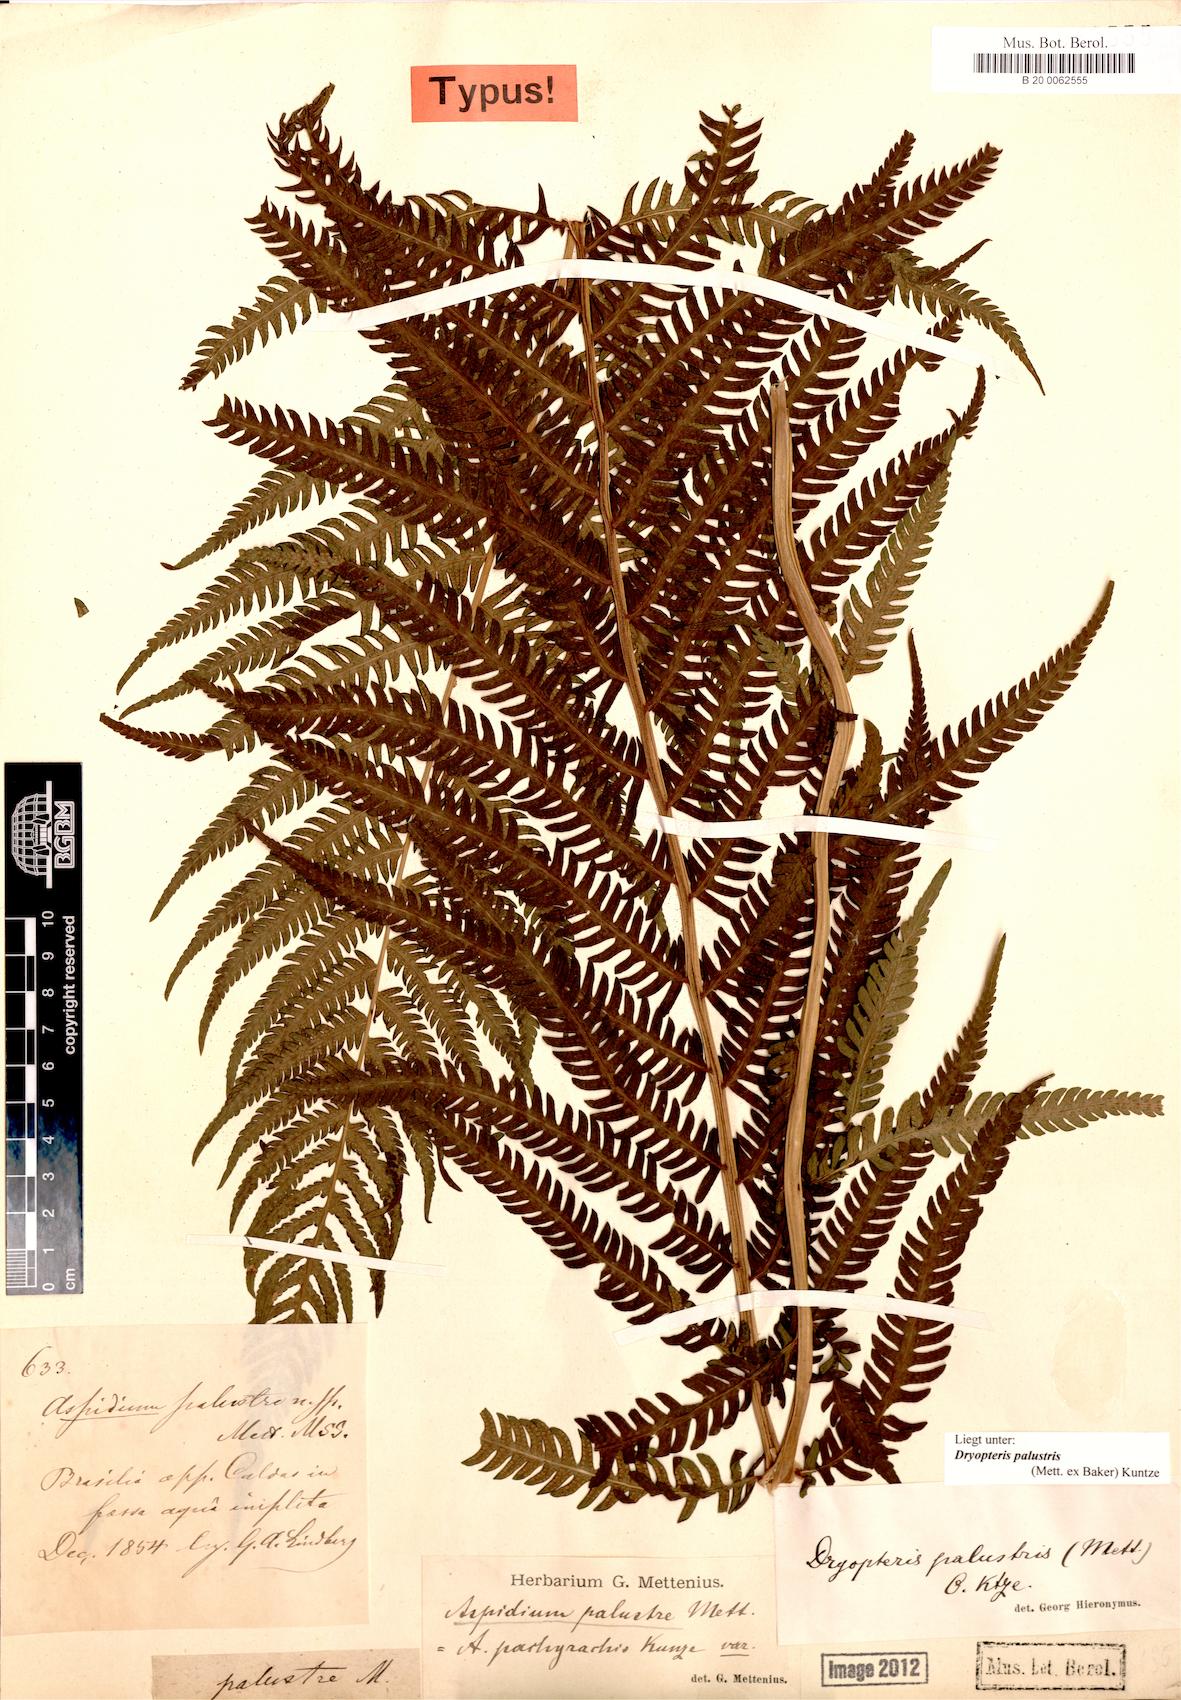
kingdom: Plantae
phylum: Tracheophyta
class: Polypodiopsida
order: Polypodiales
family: Thelypteridaceae
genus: Amauropelta
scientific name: Amauropelta metteniana
